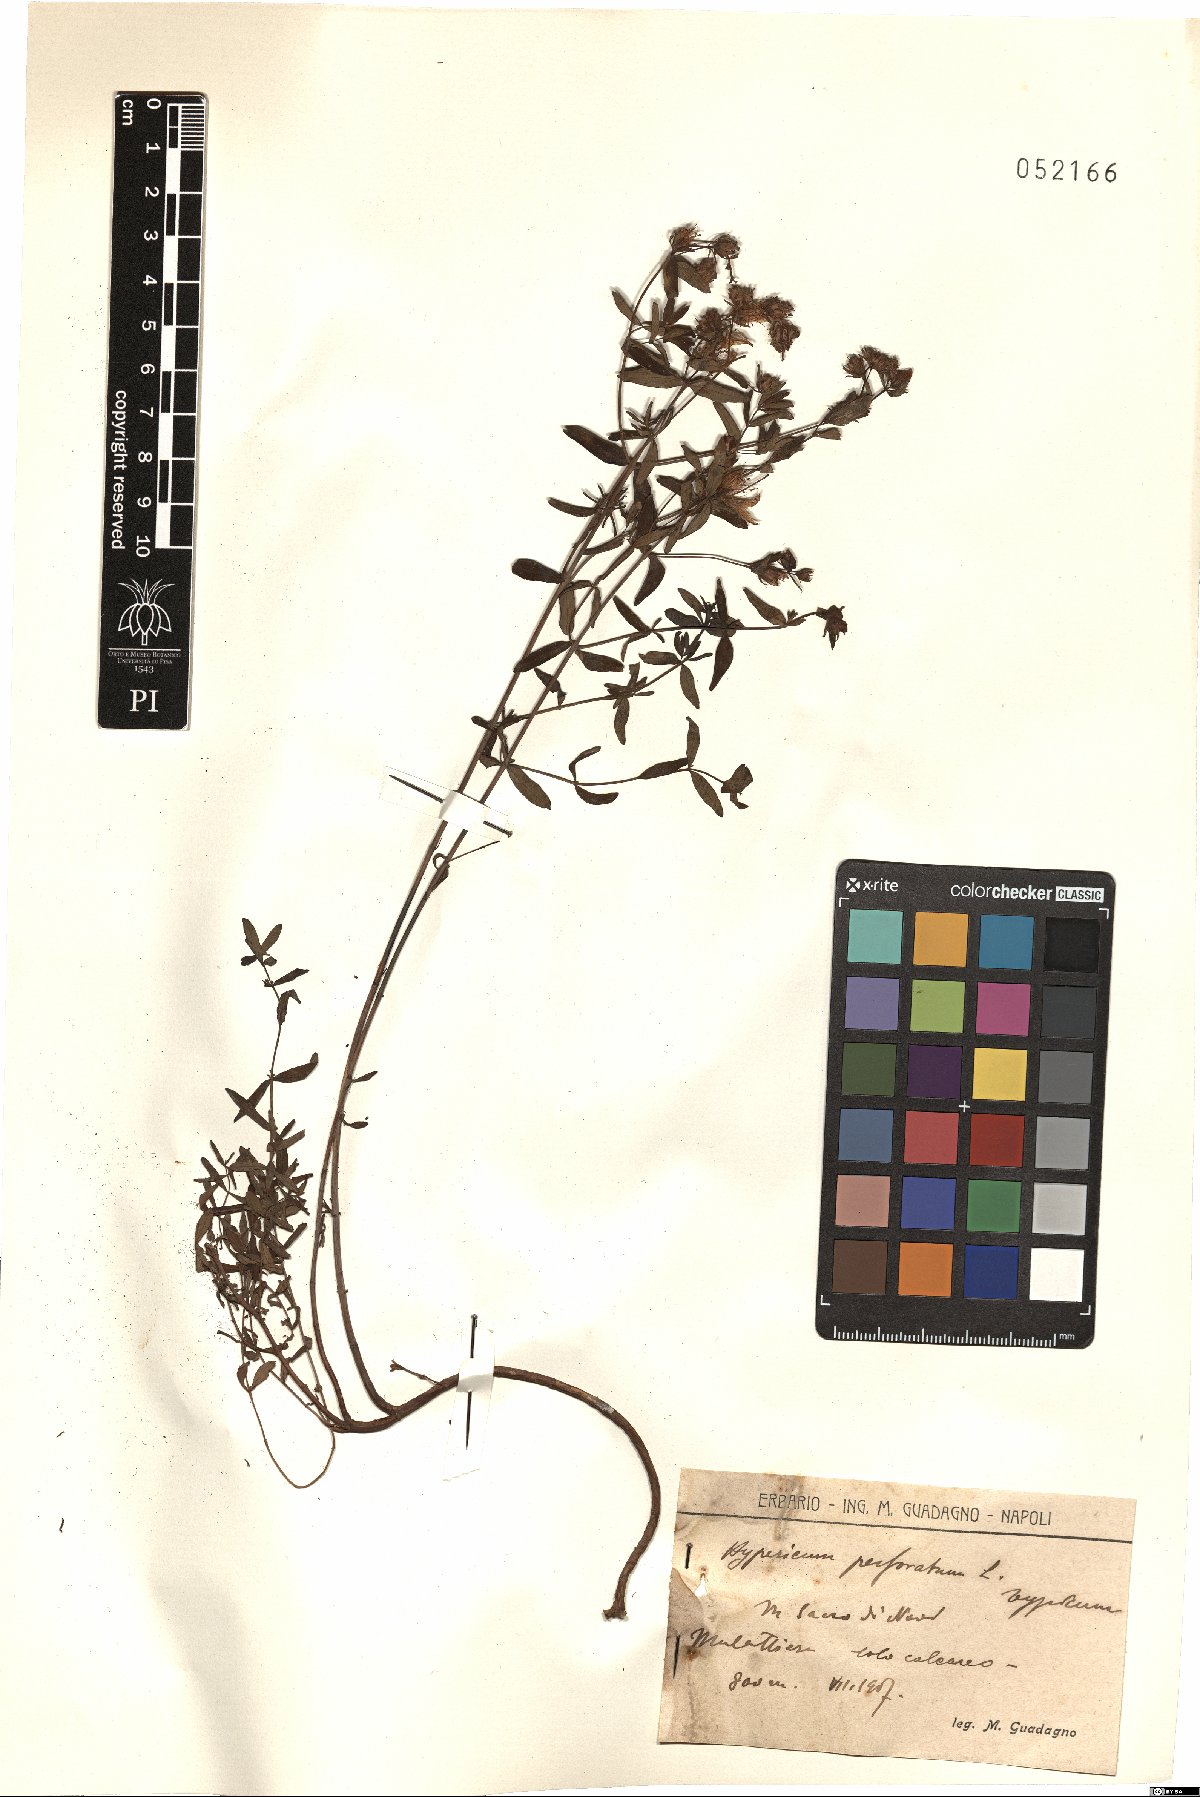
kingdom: Plantae
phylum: Tracheophyta
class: Magnoliopsida
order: Malpighiales
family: Hypericaceae
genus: Hypericum
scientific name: Hypericum perforatum
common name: Common st. johnswort
